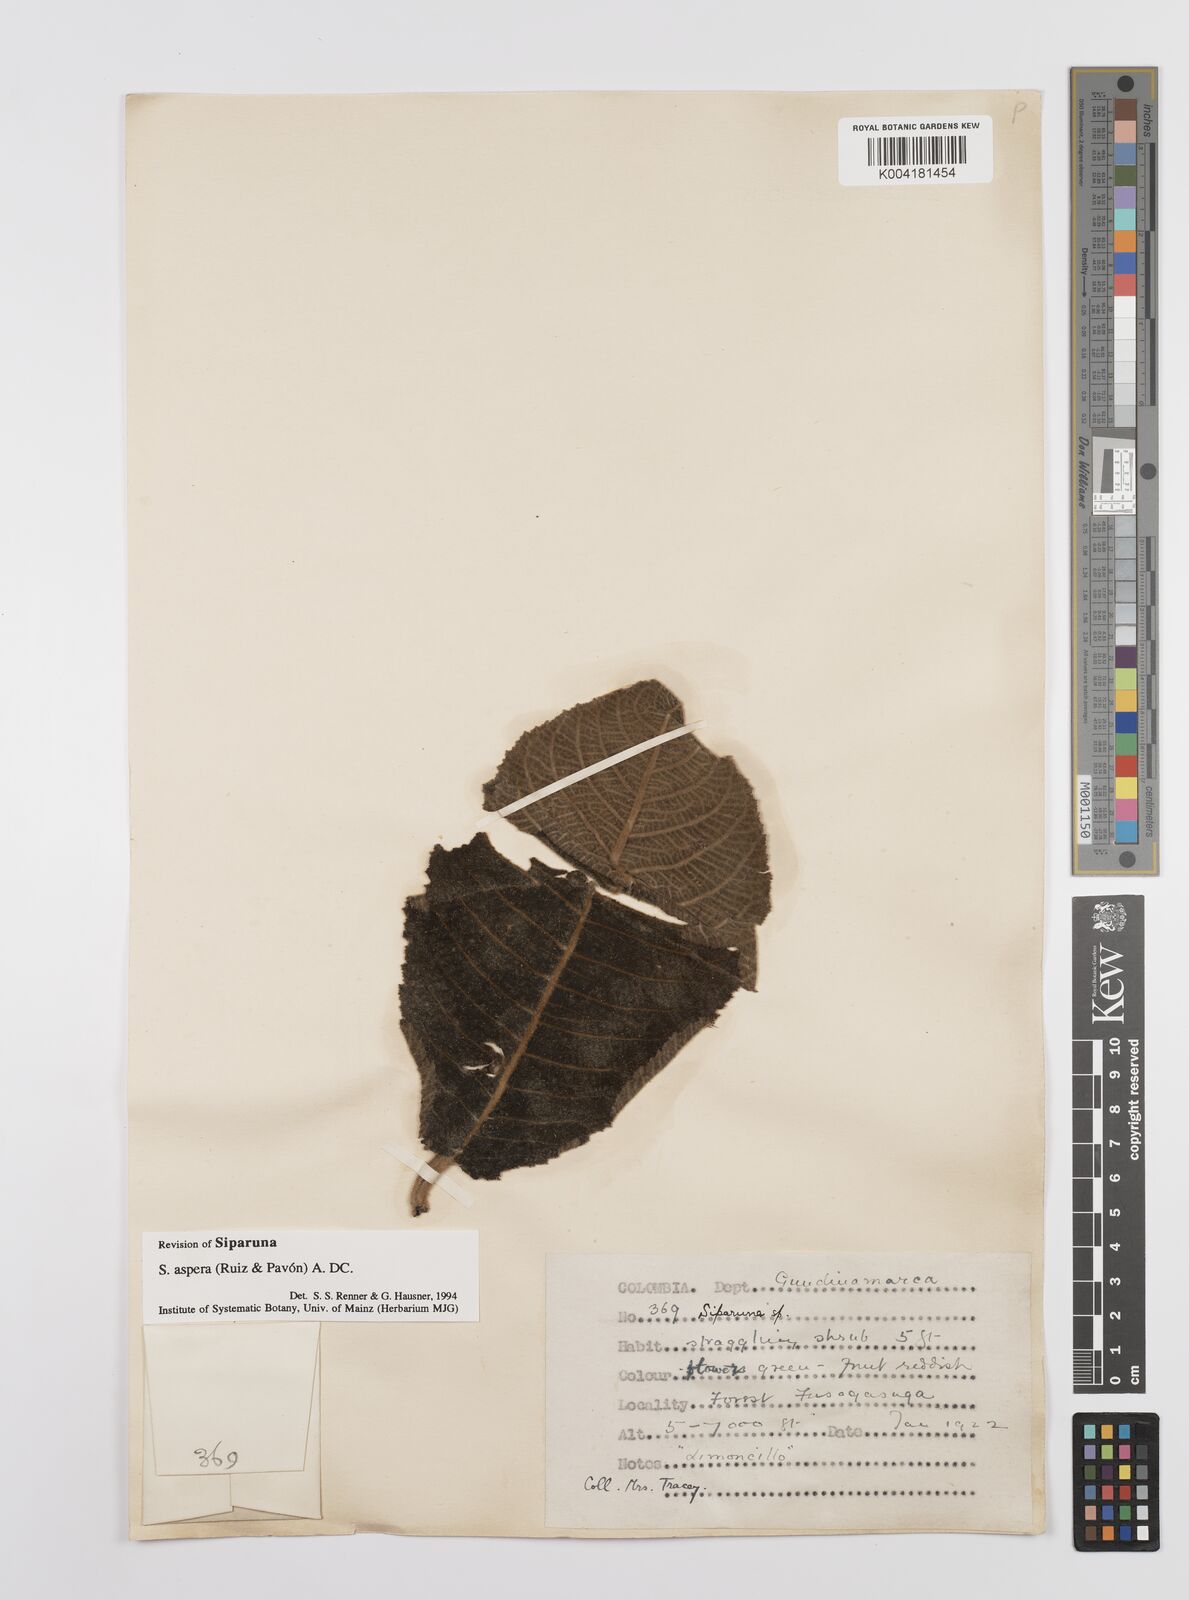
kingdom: Plantae
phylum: Tracheophyta
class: Magnoliopsida
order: Laurales
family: Siparunaceae
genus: Siparuna
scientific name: Siparuna aspera
